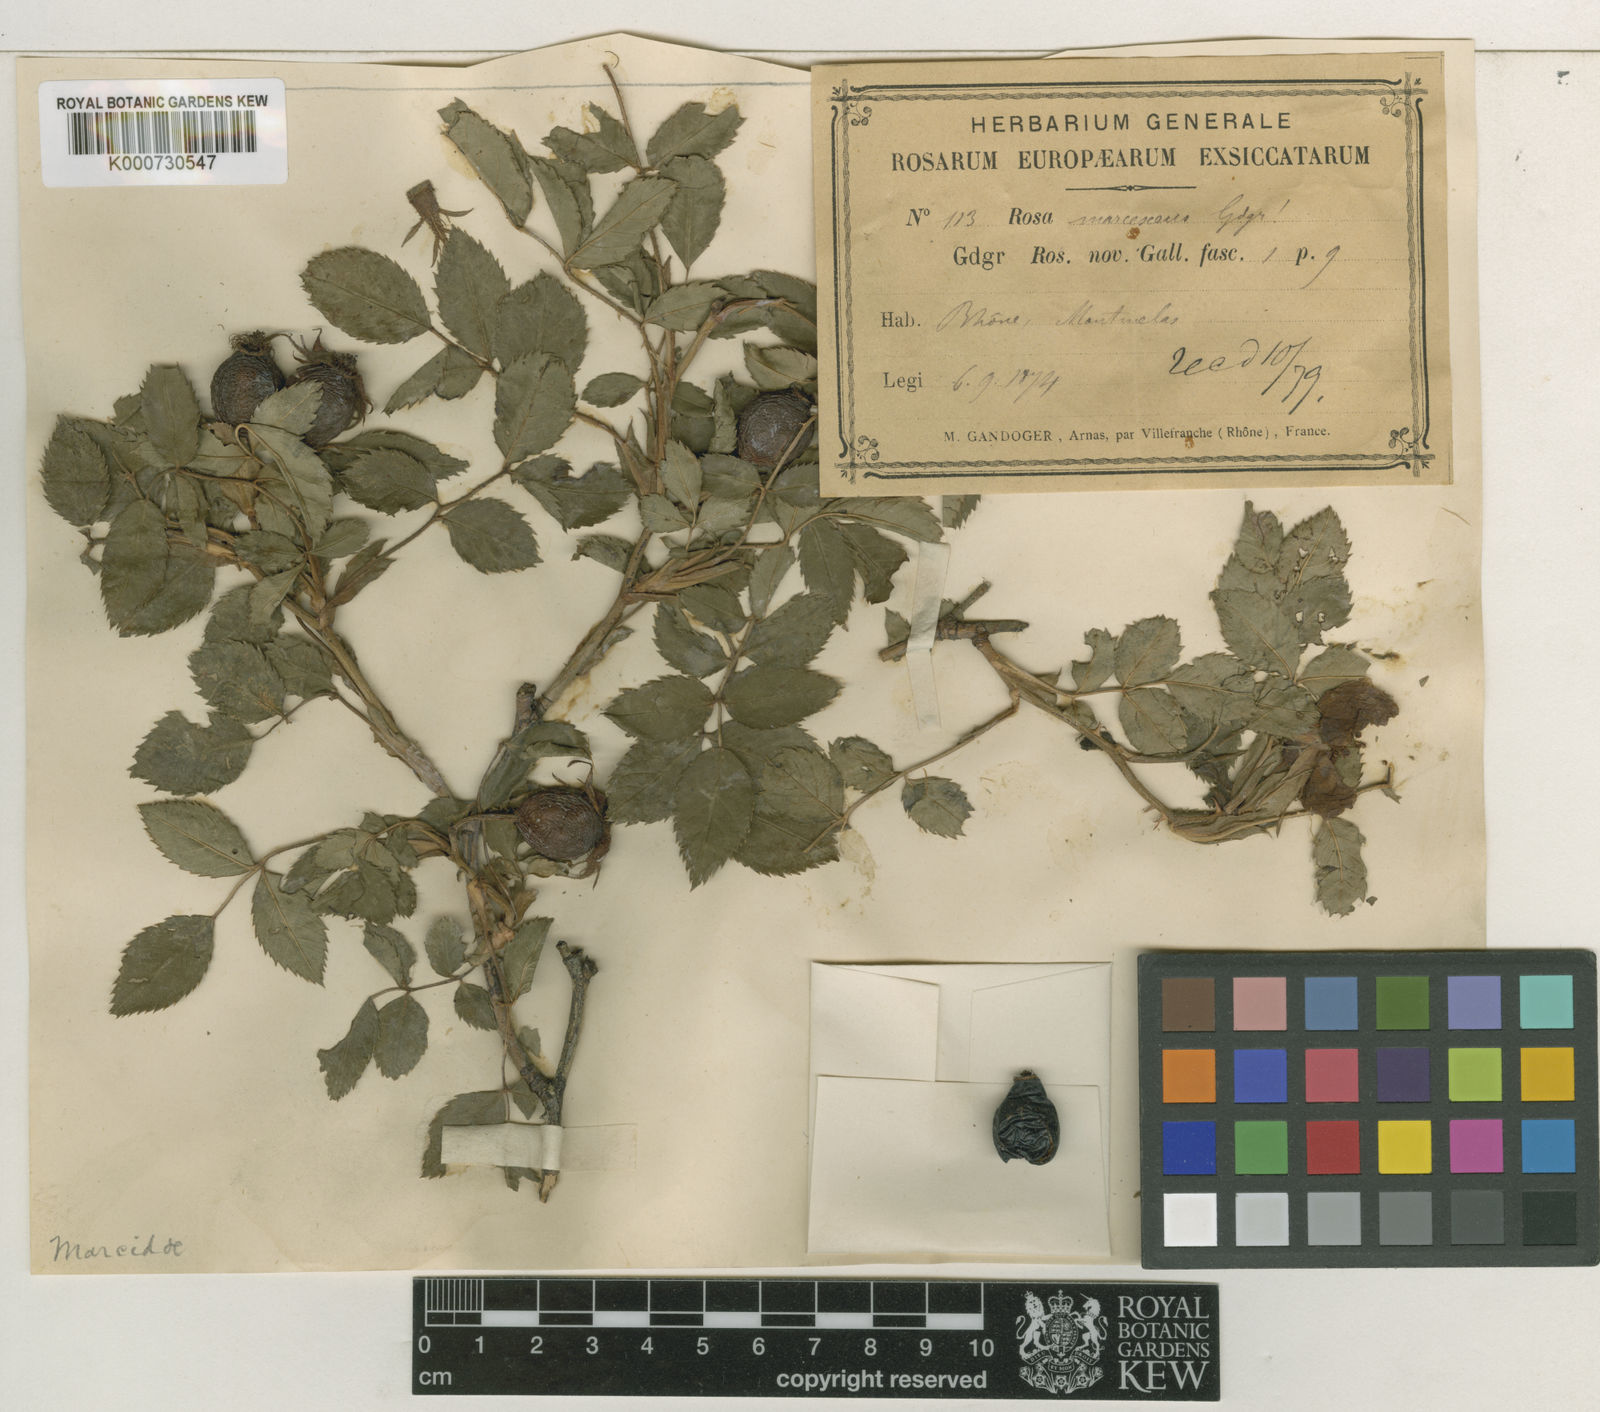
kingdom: Plantae
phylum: Tracheophyta
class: Magnoliopsida
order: Rosales
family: Rosaceae
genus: Rosa
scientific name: Rosa canina
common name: Dog rose
